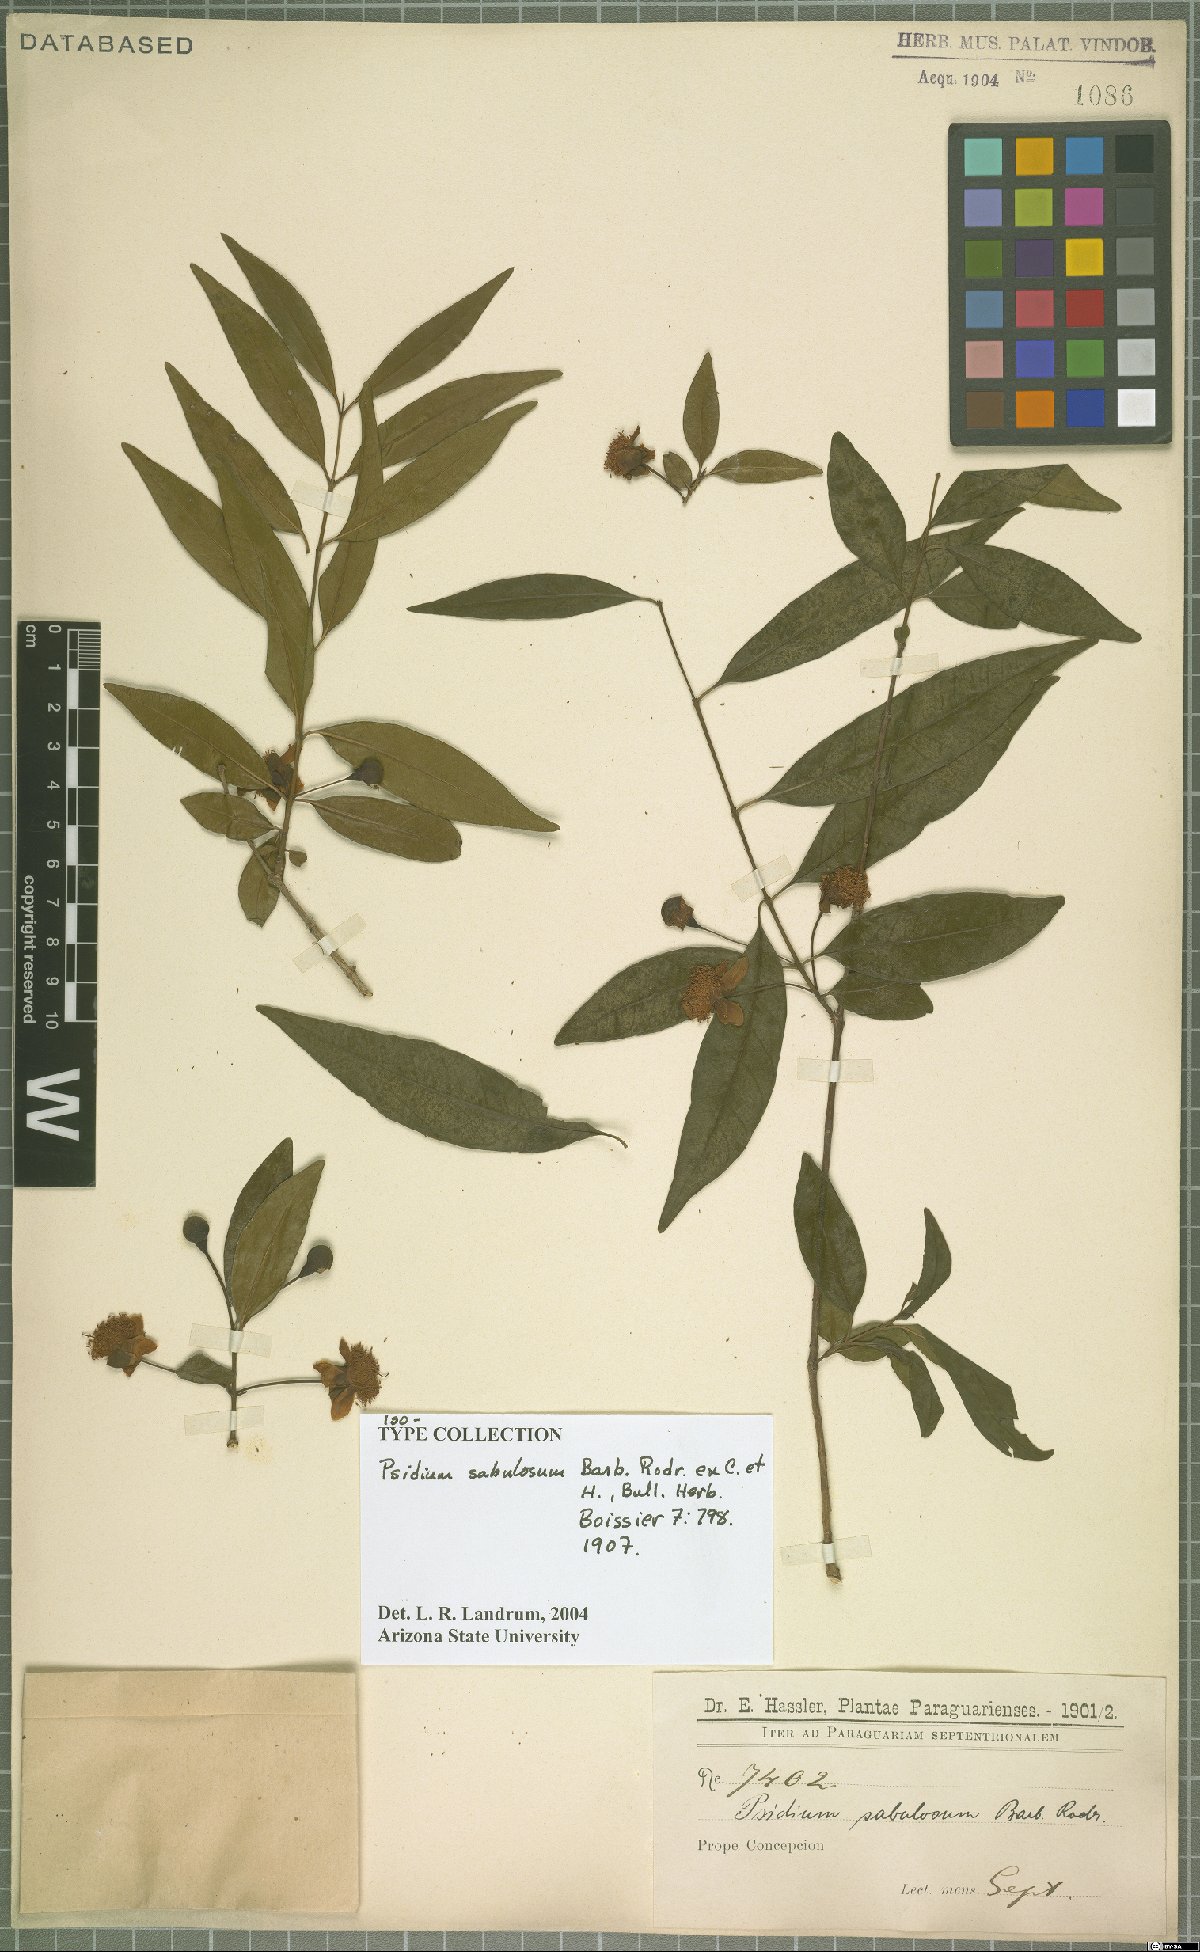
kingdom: Plantae
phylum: Tracheophyta
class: Magnoliopsida
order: Myrtales
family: Myrtaceae
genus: Psidium
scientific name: Psidium sabulosum
